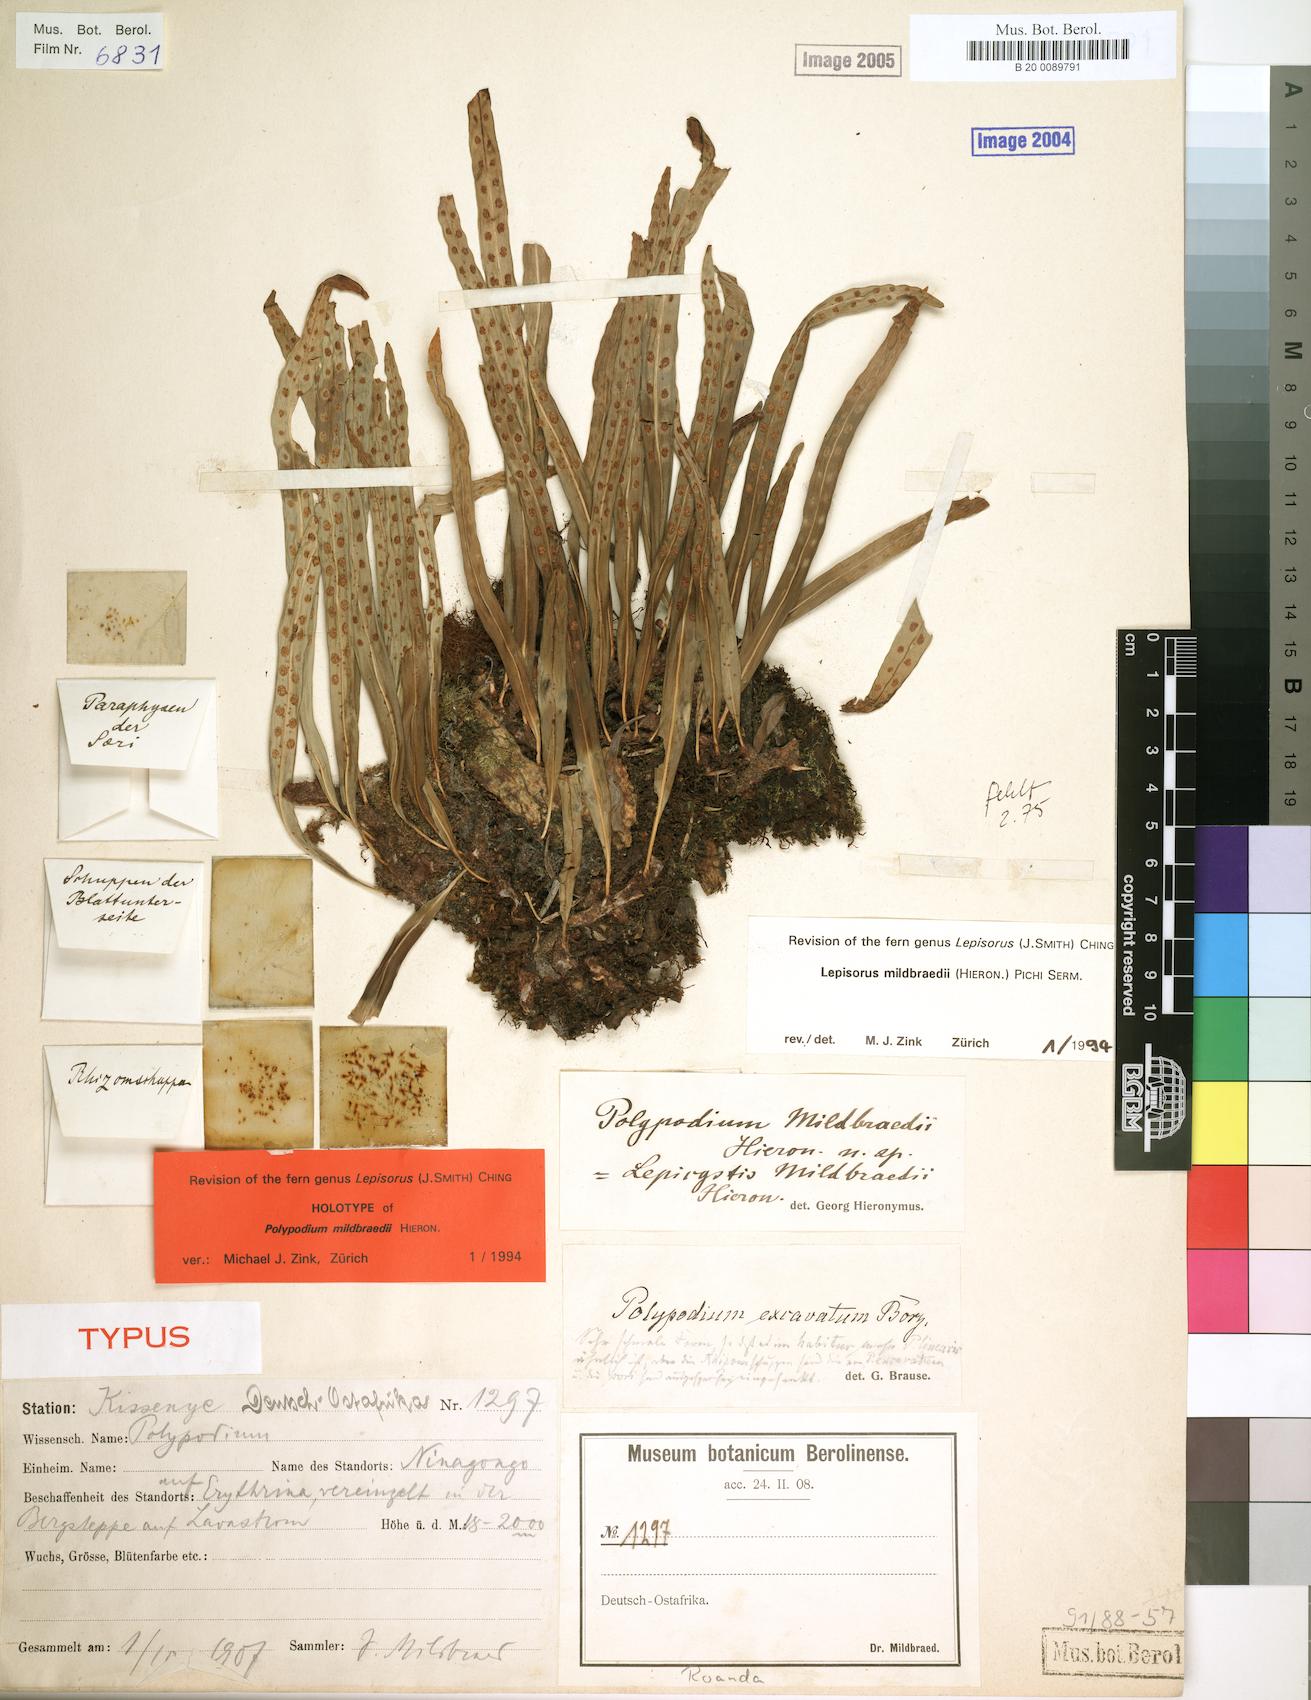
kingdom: Plantae
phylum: Tracheophyta
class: Polypodiopsida
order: Polypodiales
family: Polypodiaceae
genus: Lepisorus
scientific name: Lepisorus excavatus
